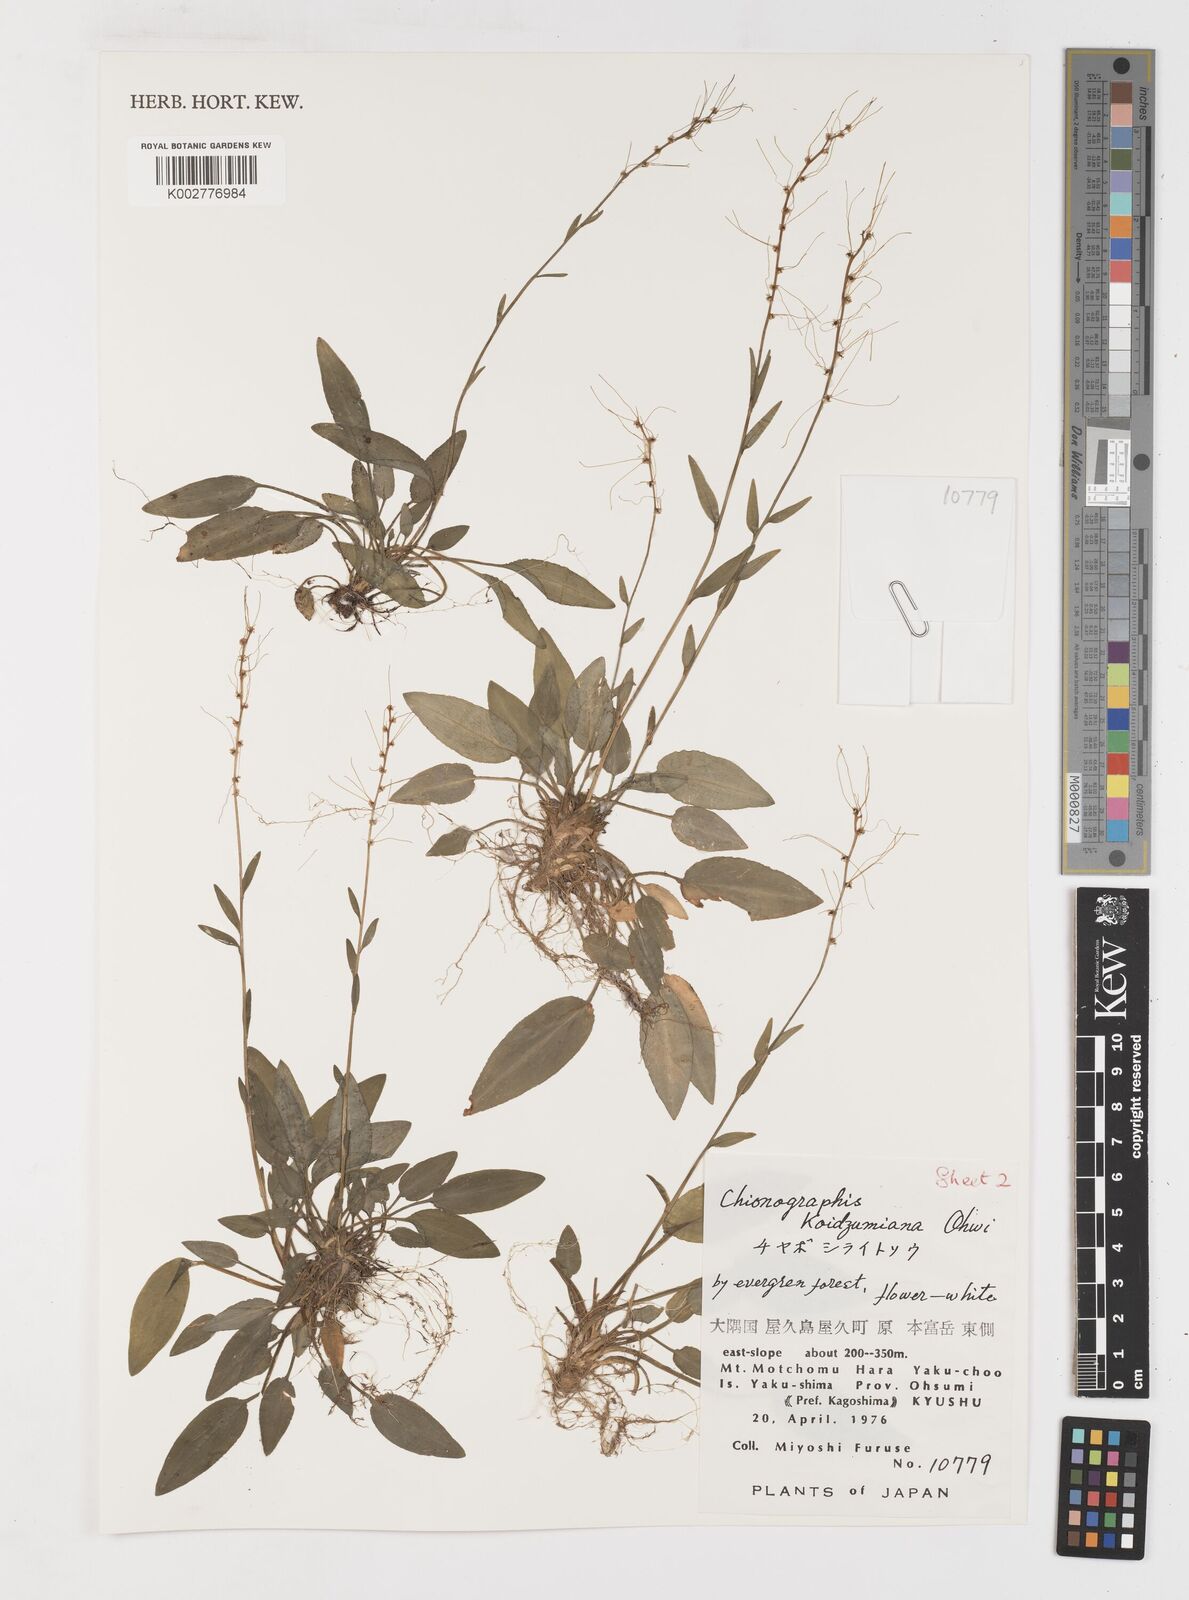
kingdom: Plantae
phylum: Tracheophyta
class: Liliopsida
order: Liliales
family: Melanthiaceae
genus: Chamaelirium
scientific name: Chamaelirium koidzumianum
